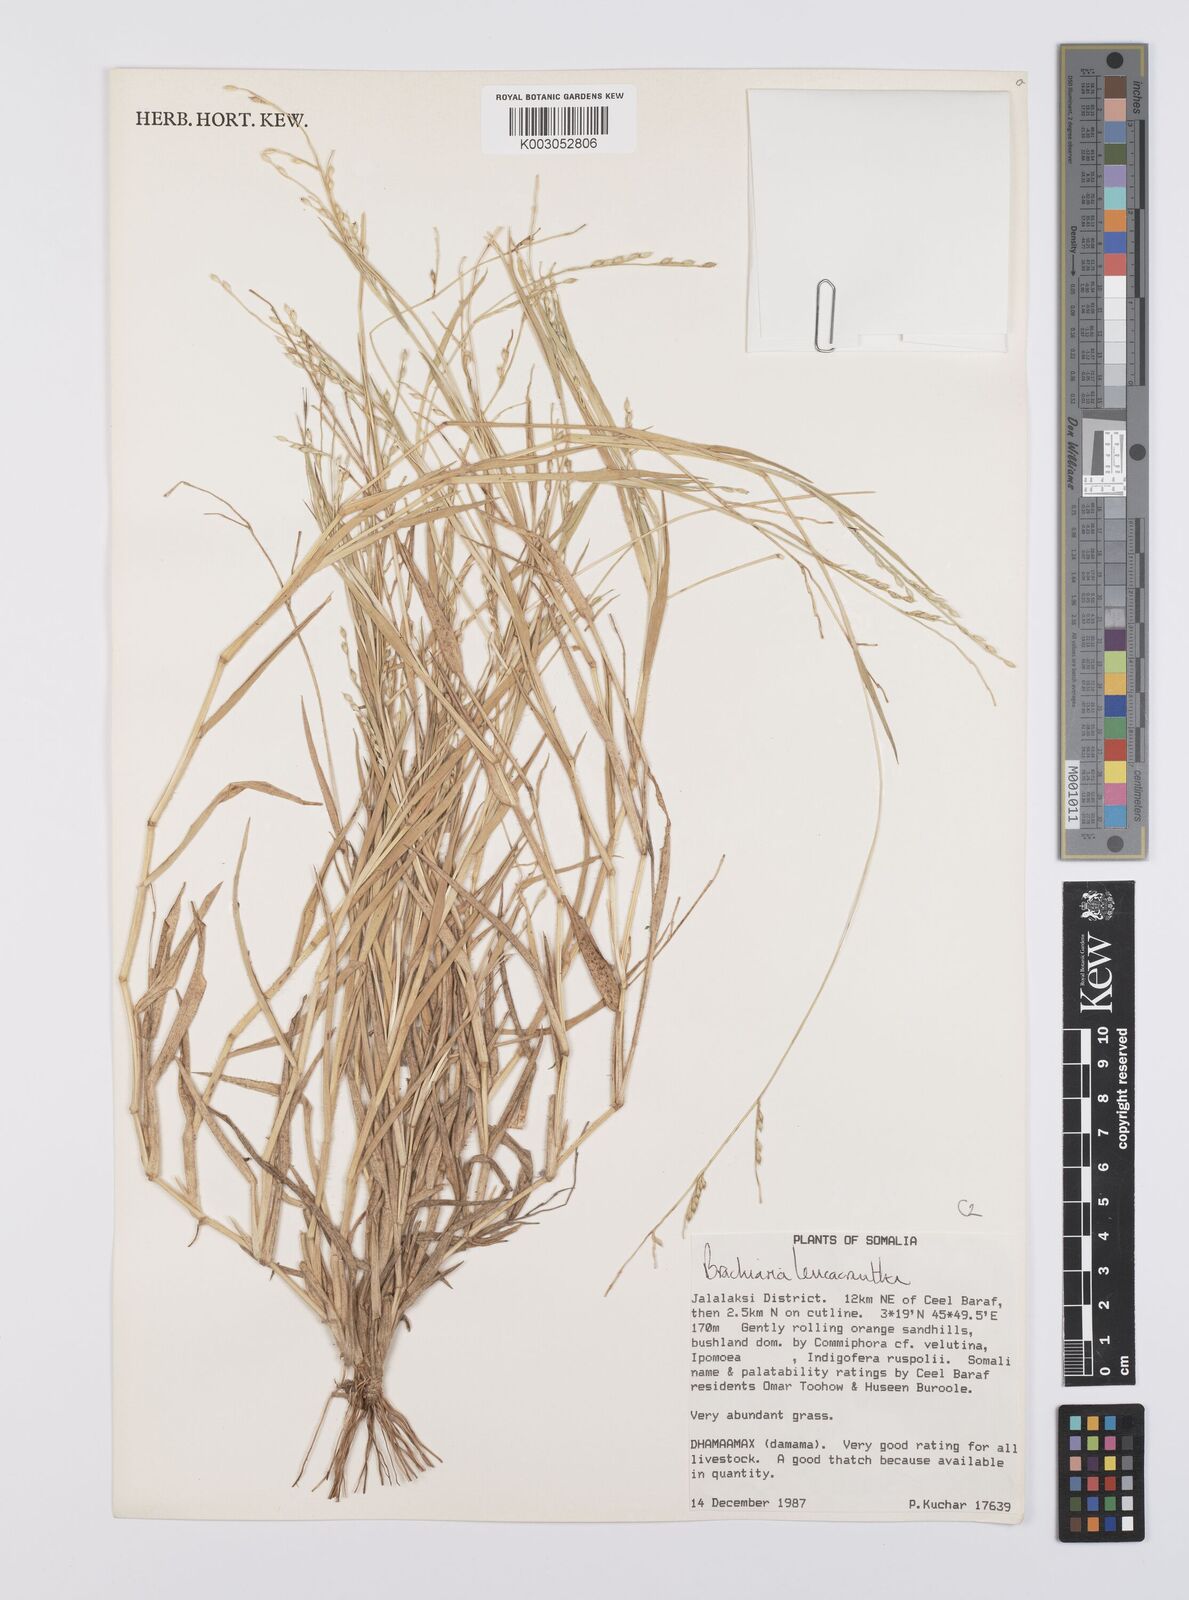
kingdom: Plantae
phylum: Tracheophyta
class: Liliopsida
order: Poales
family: Poaceae
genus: Urochloa
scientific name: Urochloa xantholeuca
